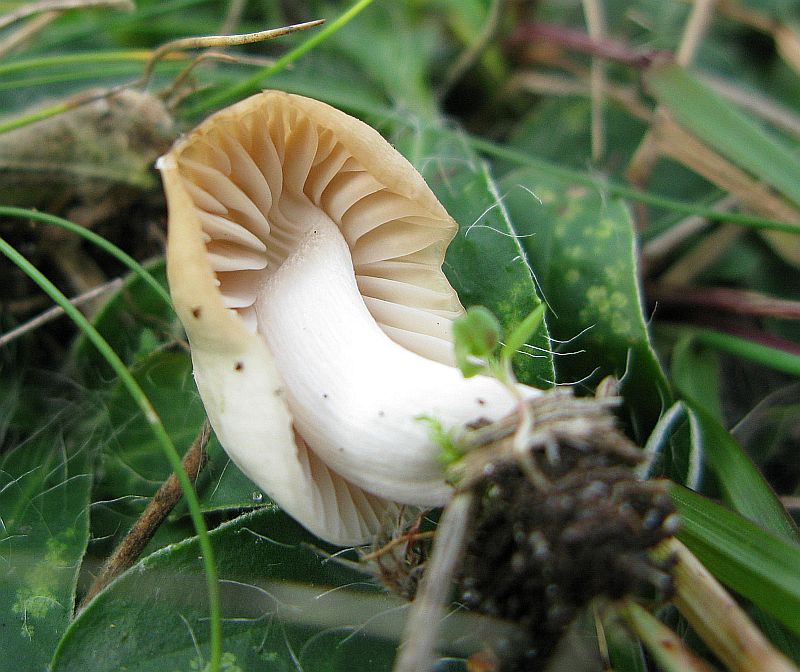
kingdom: Fungi
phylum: Basidiomycota
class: Agaricomycetes
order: Agaricales
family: Hygrophoraceae
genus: Cuphophyllus
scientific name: Cuphophyllus virgineus
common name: snehvid vokshat
